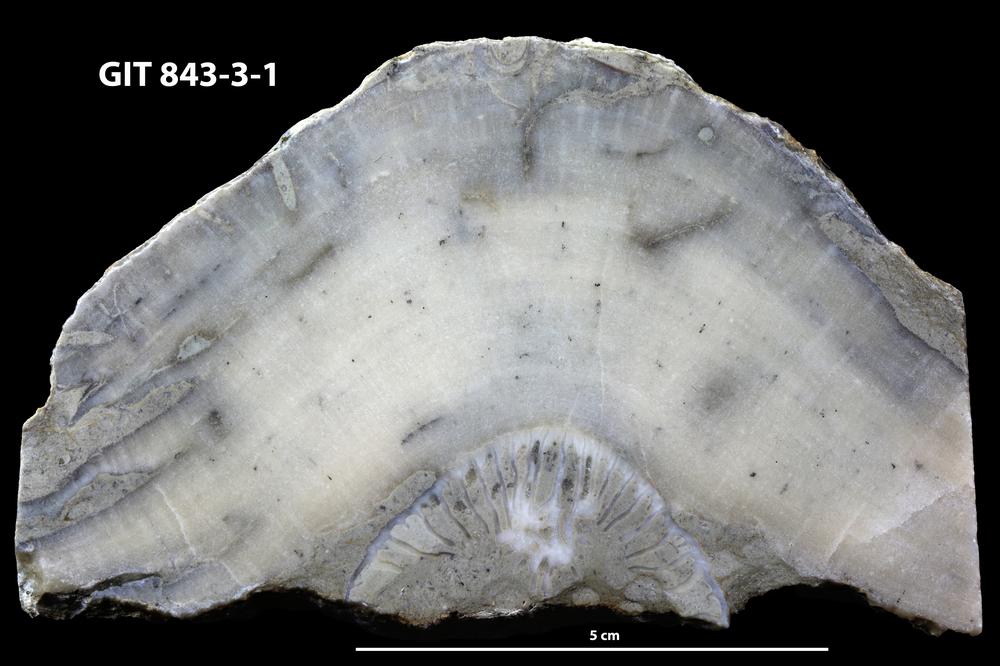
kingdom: Animalia
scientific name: Animalia
